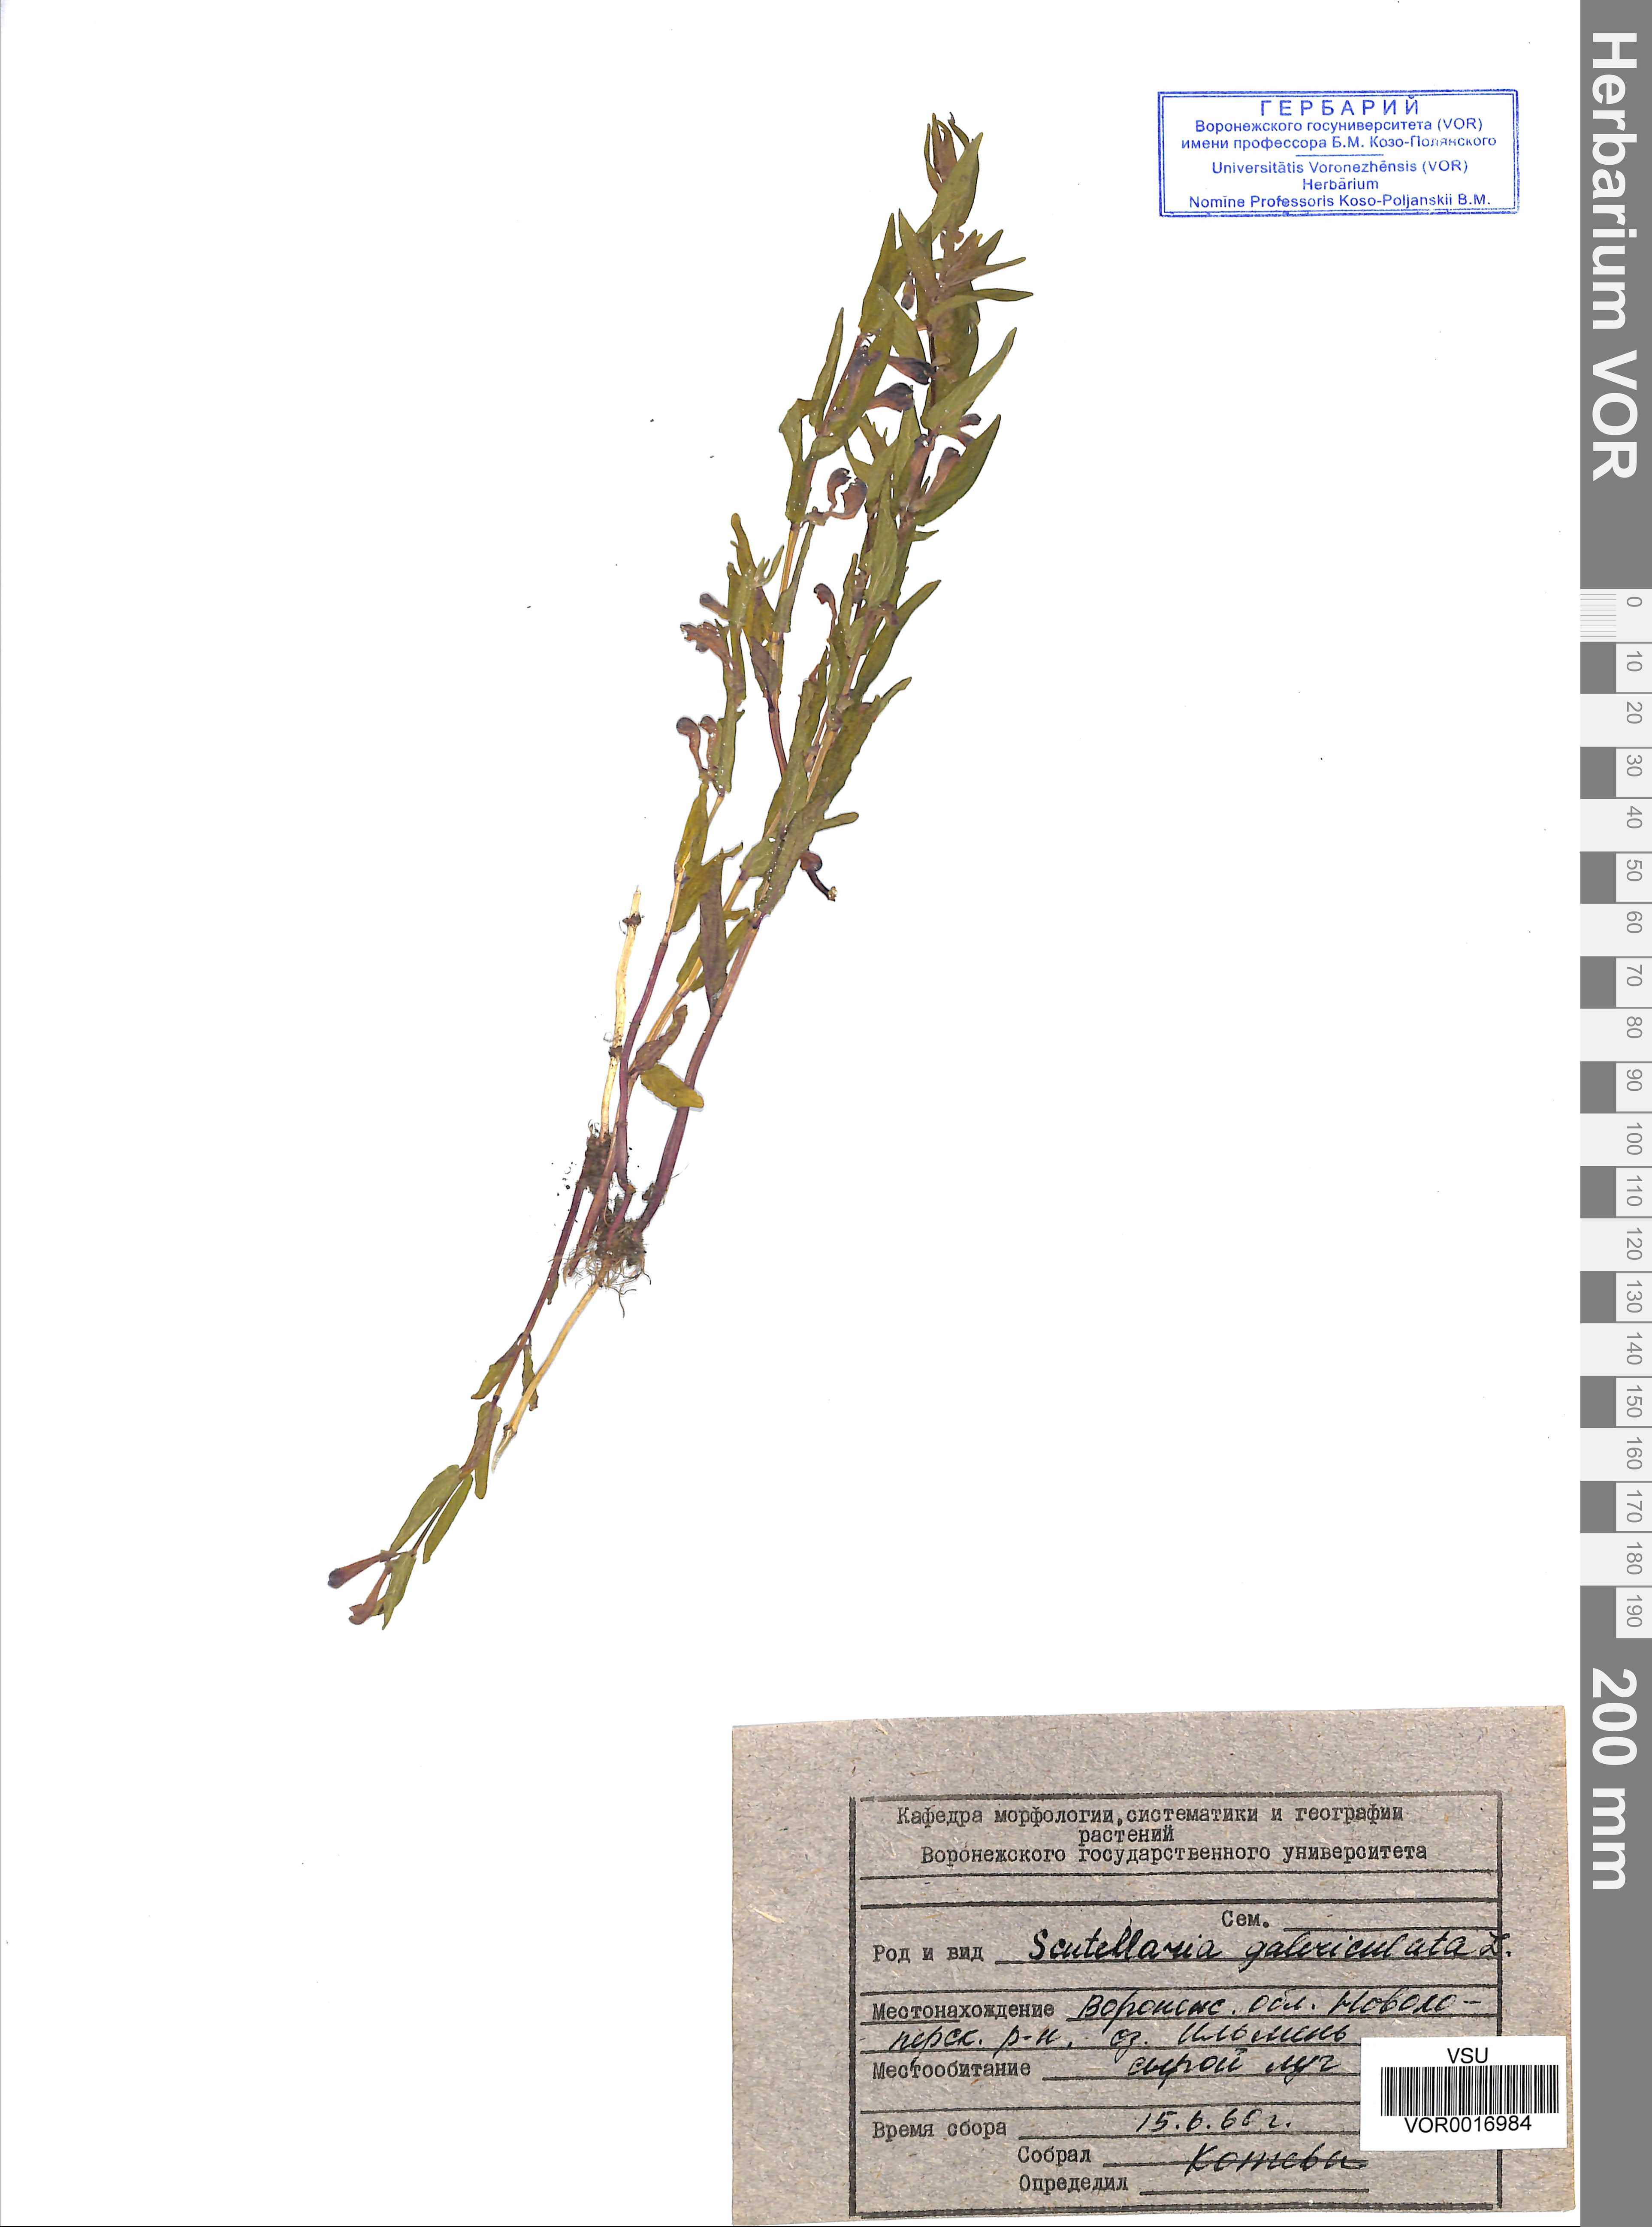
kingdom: Plantae
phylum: Tracheophyta
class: Magnoliopsida
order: Lamiales
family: Lamiaceae
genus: Scutellaria
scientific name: Scutellaria galericulata
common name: Skullcap
